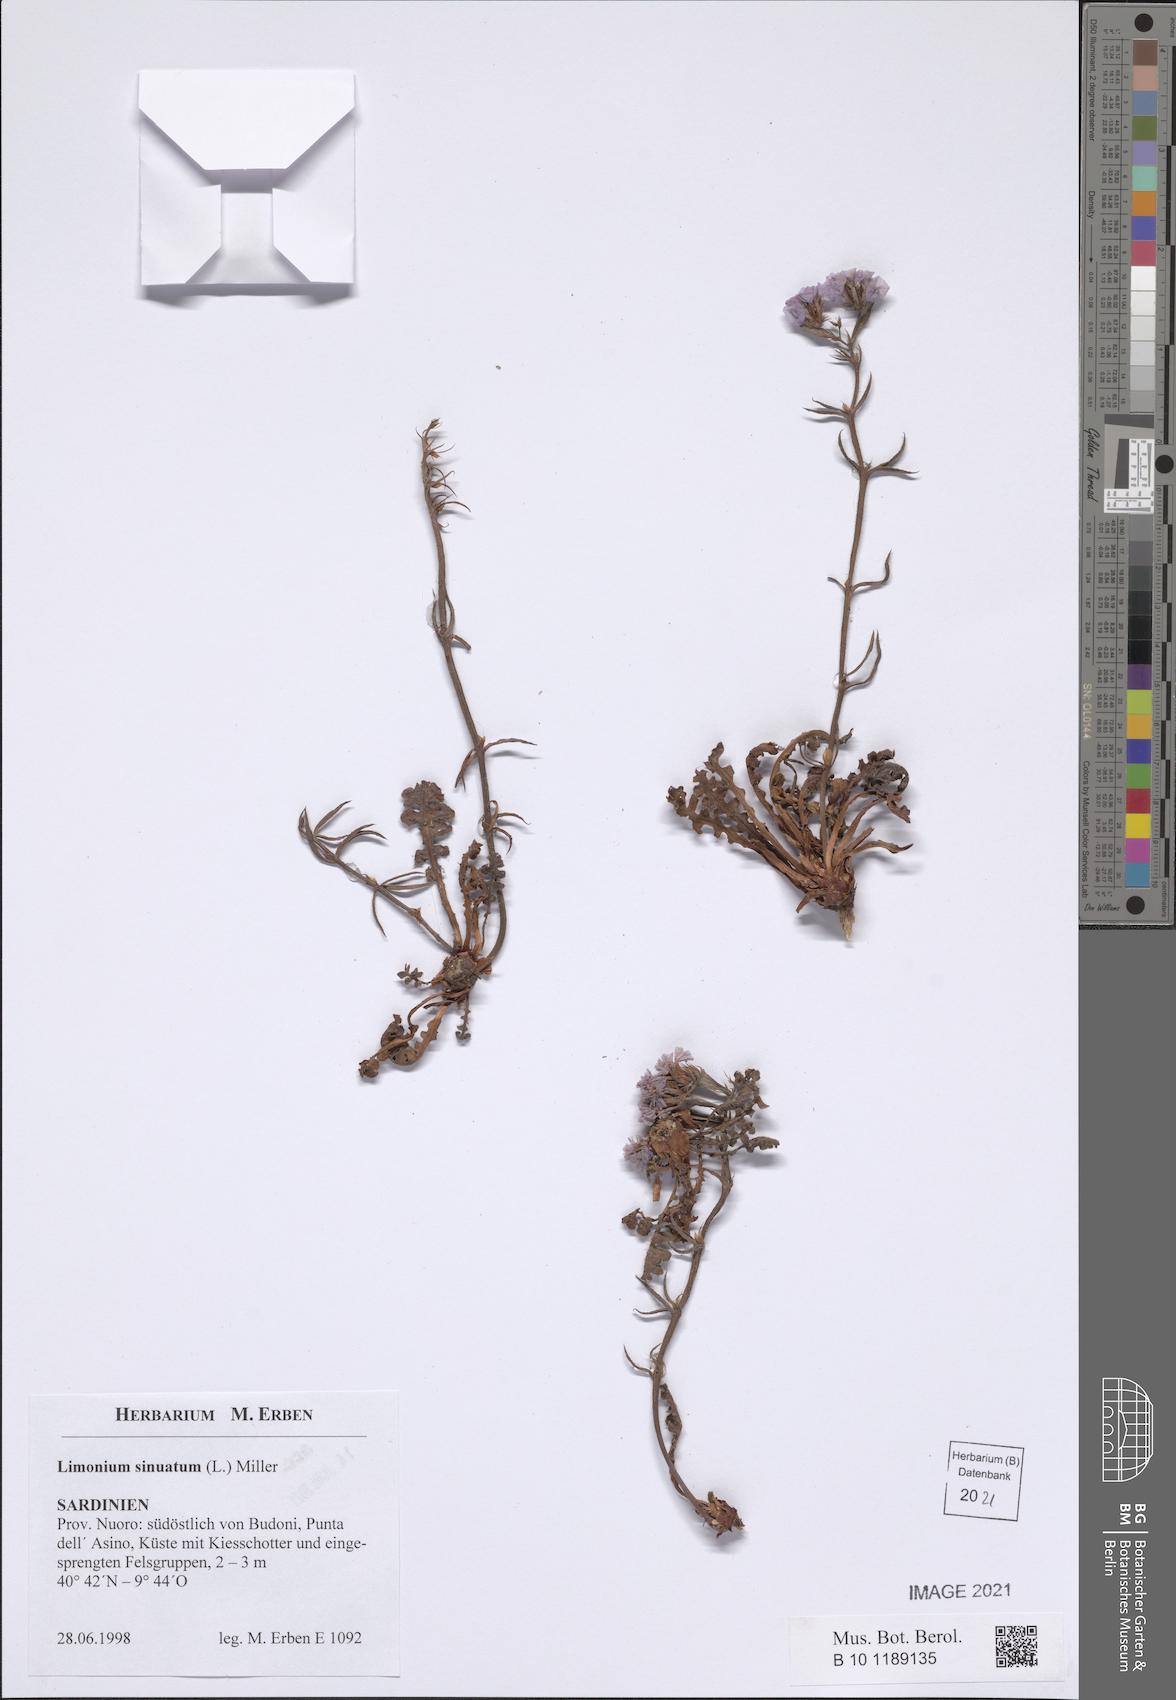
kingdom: Plantae
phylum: Tracheophyta
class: Magnoliopsida
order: Caryophyllales
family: Plumbaginaceae
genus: Limonium
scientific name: Limonium sinuatum
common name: Statice
